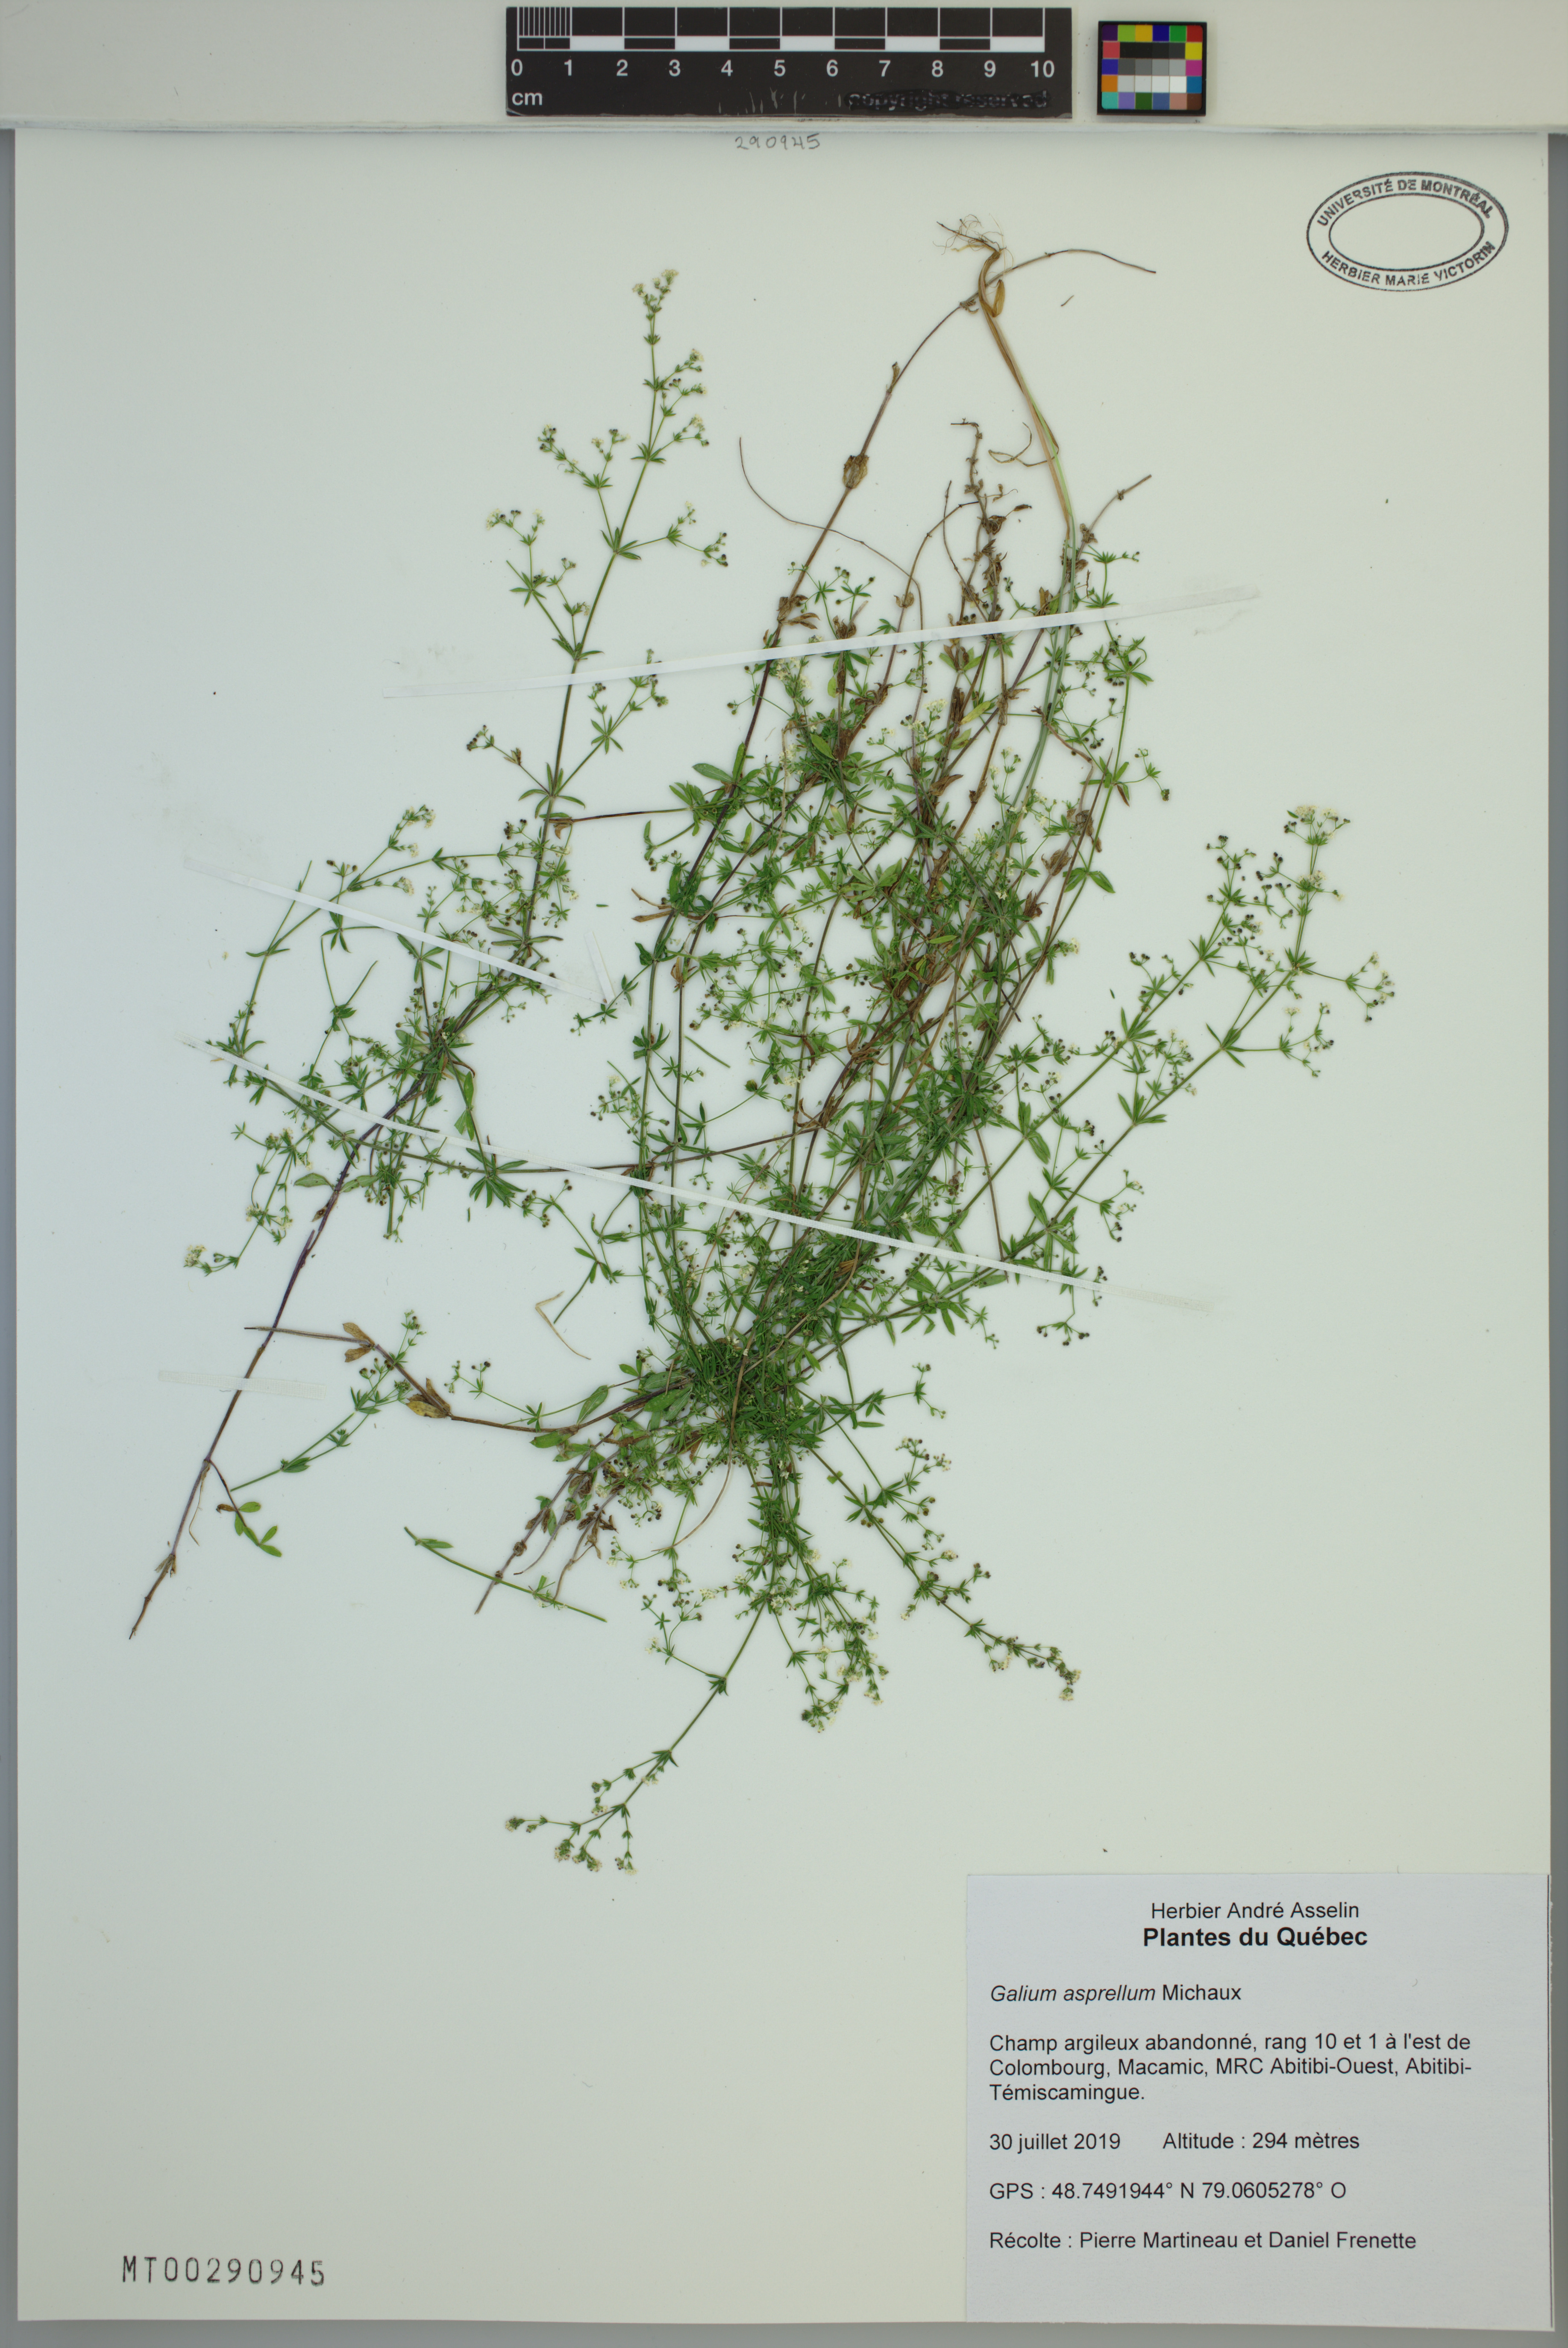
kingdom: Plantae
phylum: Tracheophyta
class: Magnoliopsida
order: Gentianales
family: Rubiaceae
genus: Galium
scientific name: Galium asprellum
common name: Rough bedstraw
